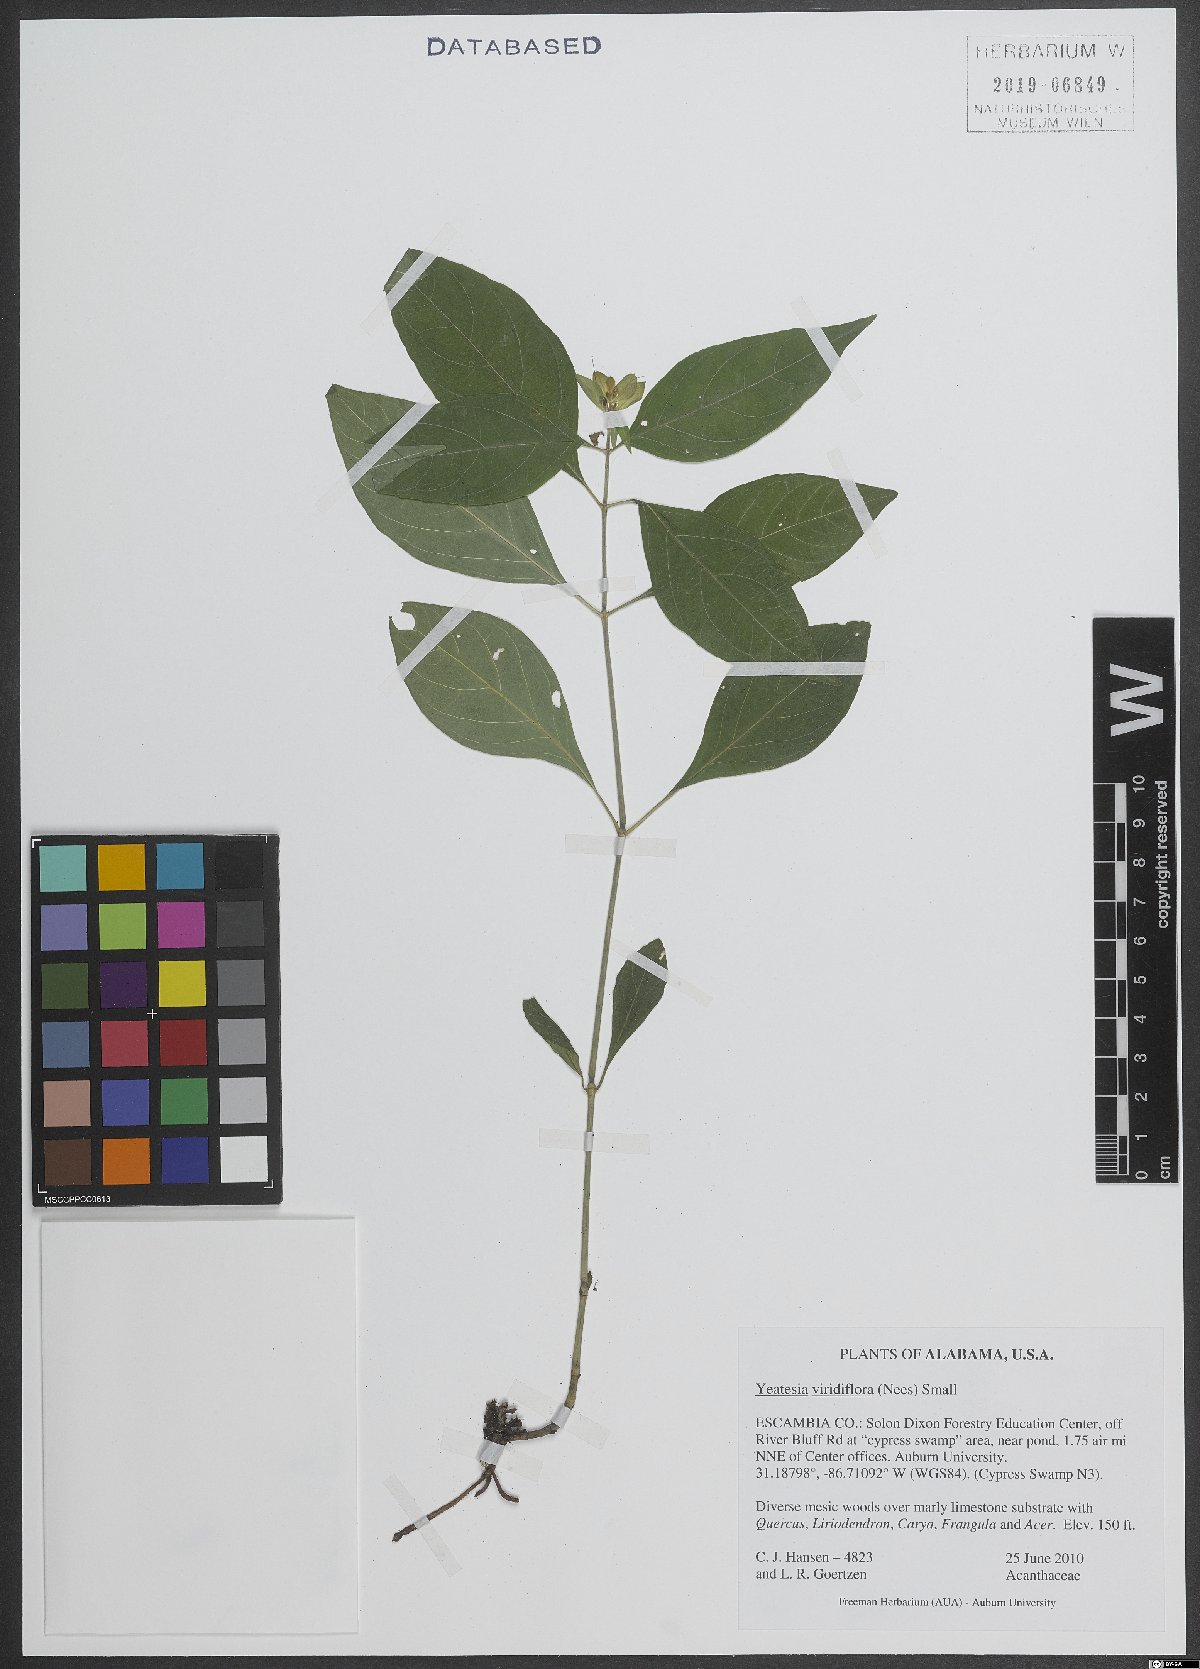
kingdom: Plantae
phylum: Tracheophyta
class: Magnoliopsida
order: Lamiales
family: Acanthaceae
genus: Yeatesia
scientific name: Yeatesia viridiflora
